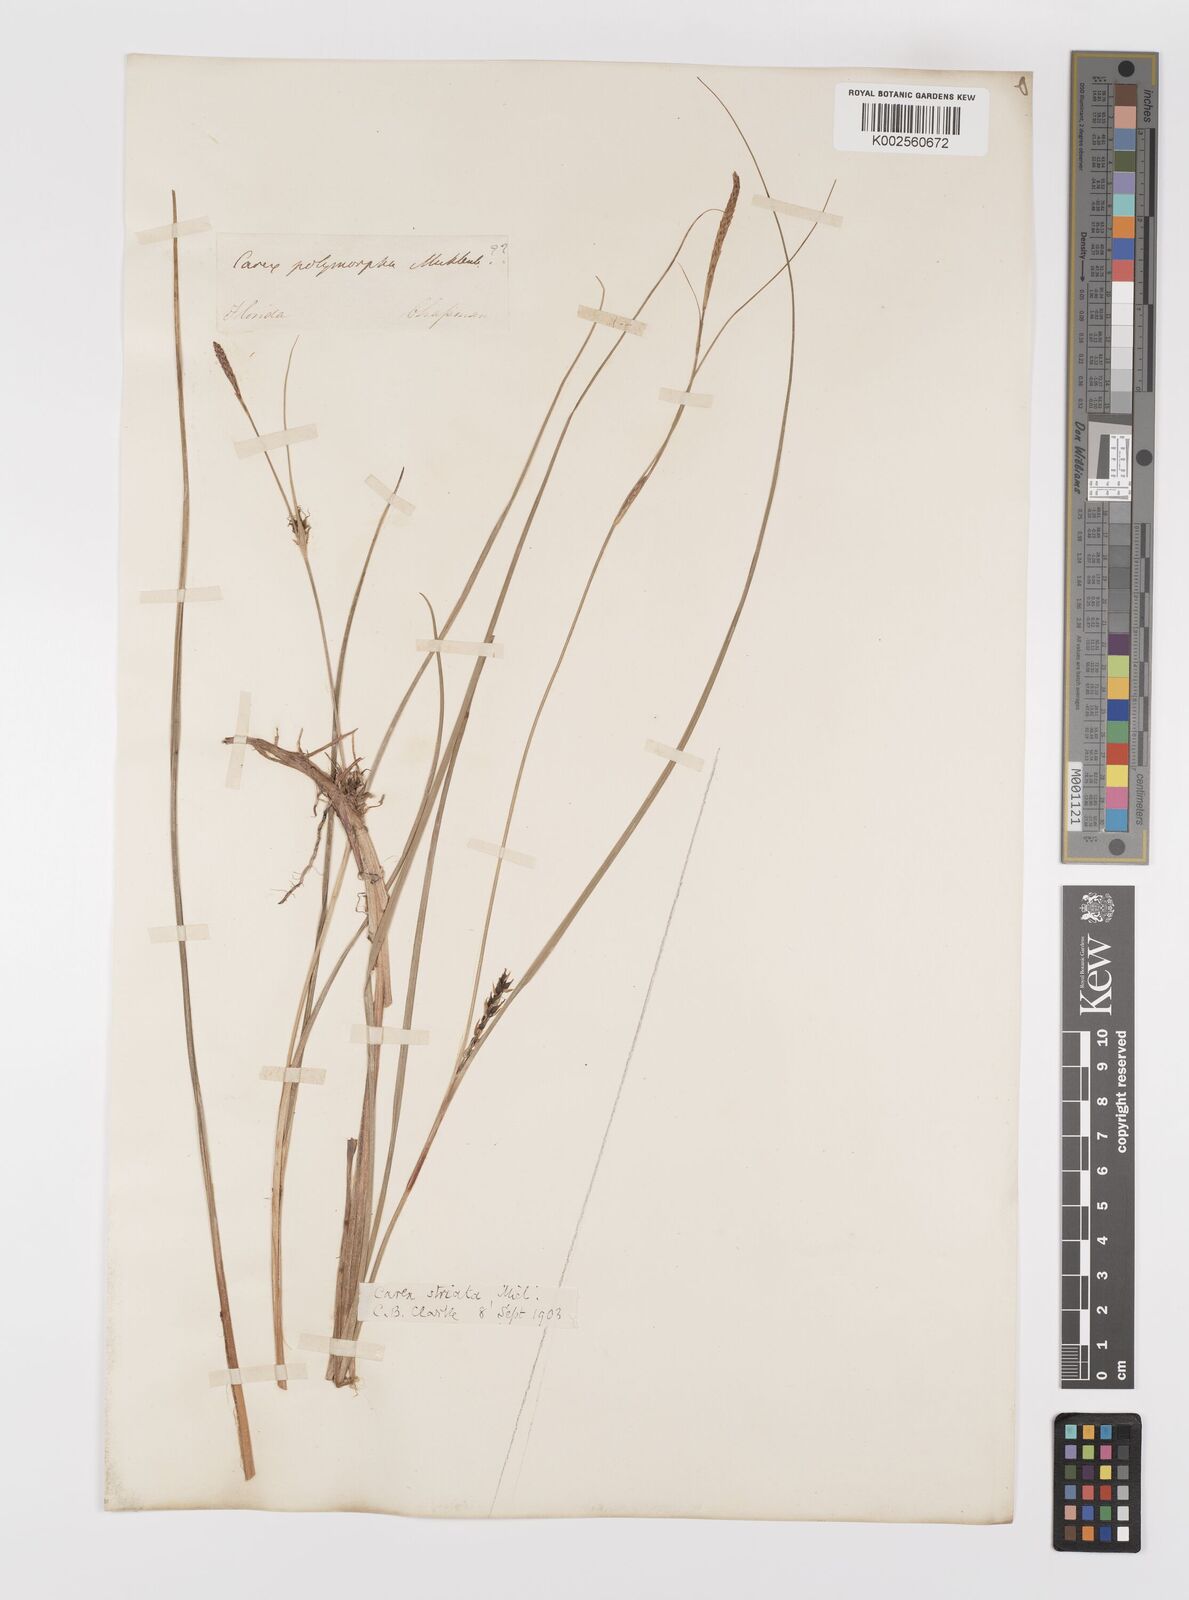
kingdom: Plantae
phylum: Tracheophyta
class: Liliopsida
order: Poales
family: Cyperaceae
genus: Carex
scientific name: Carex striata
